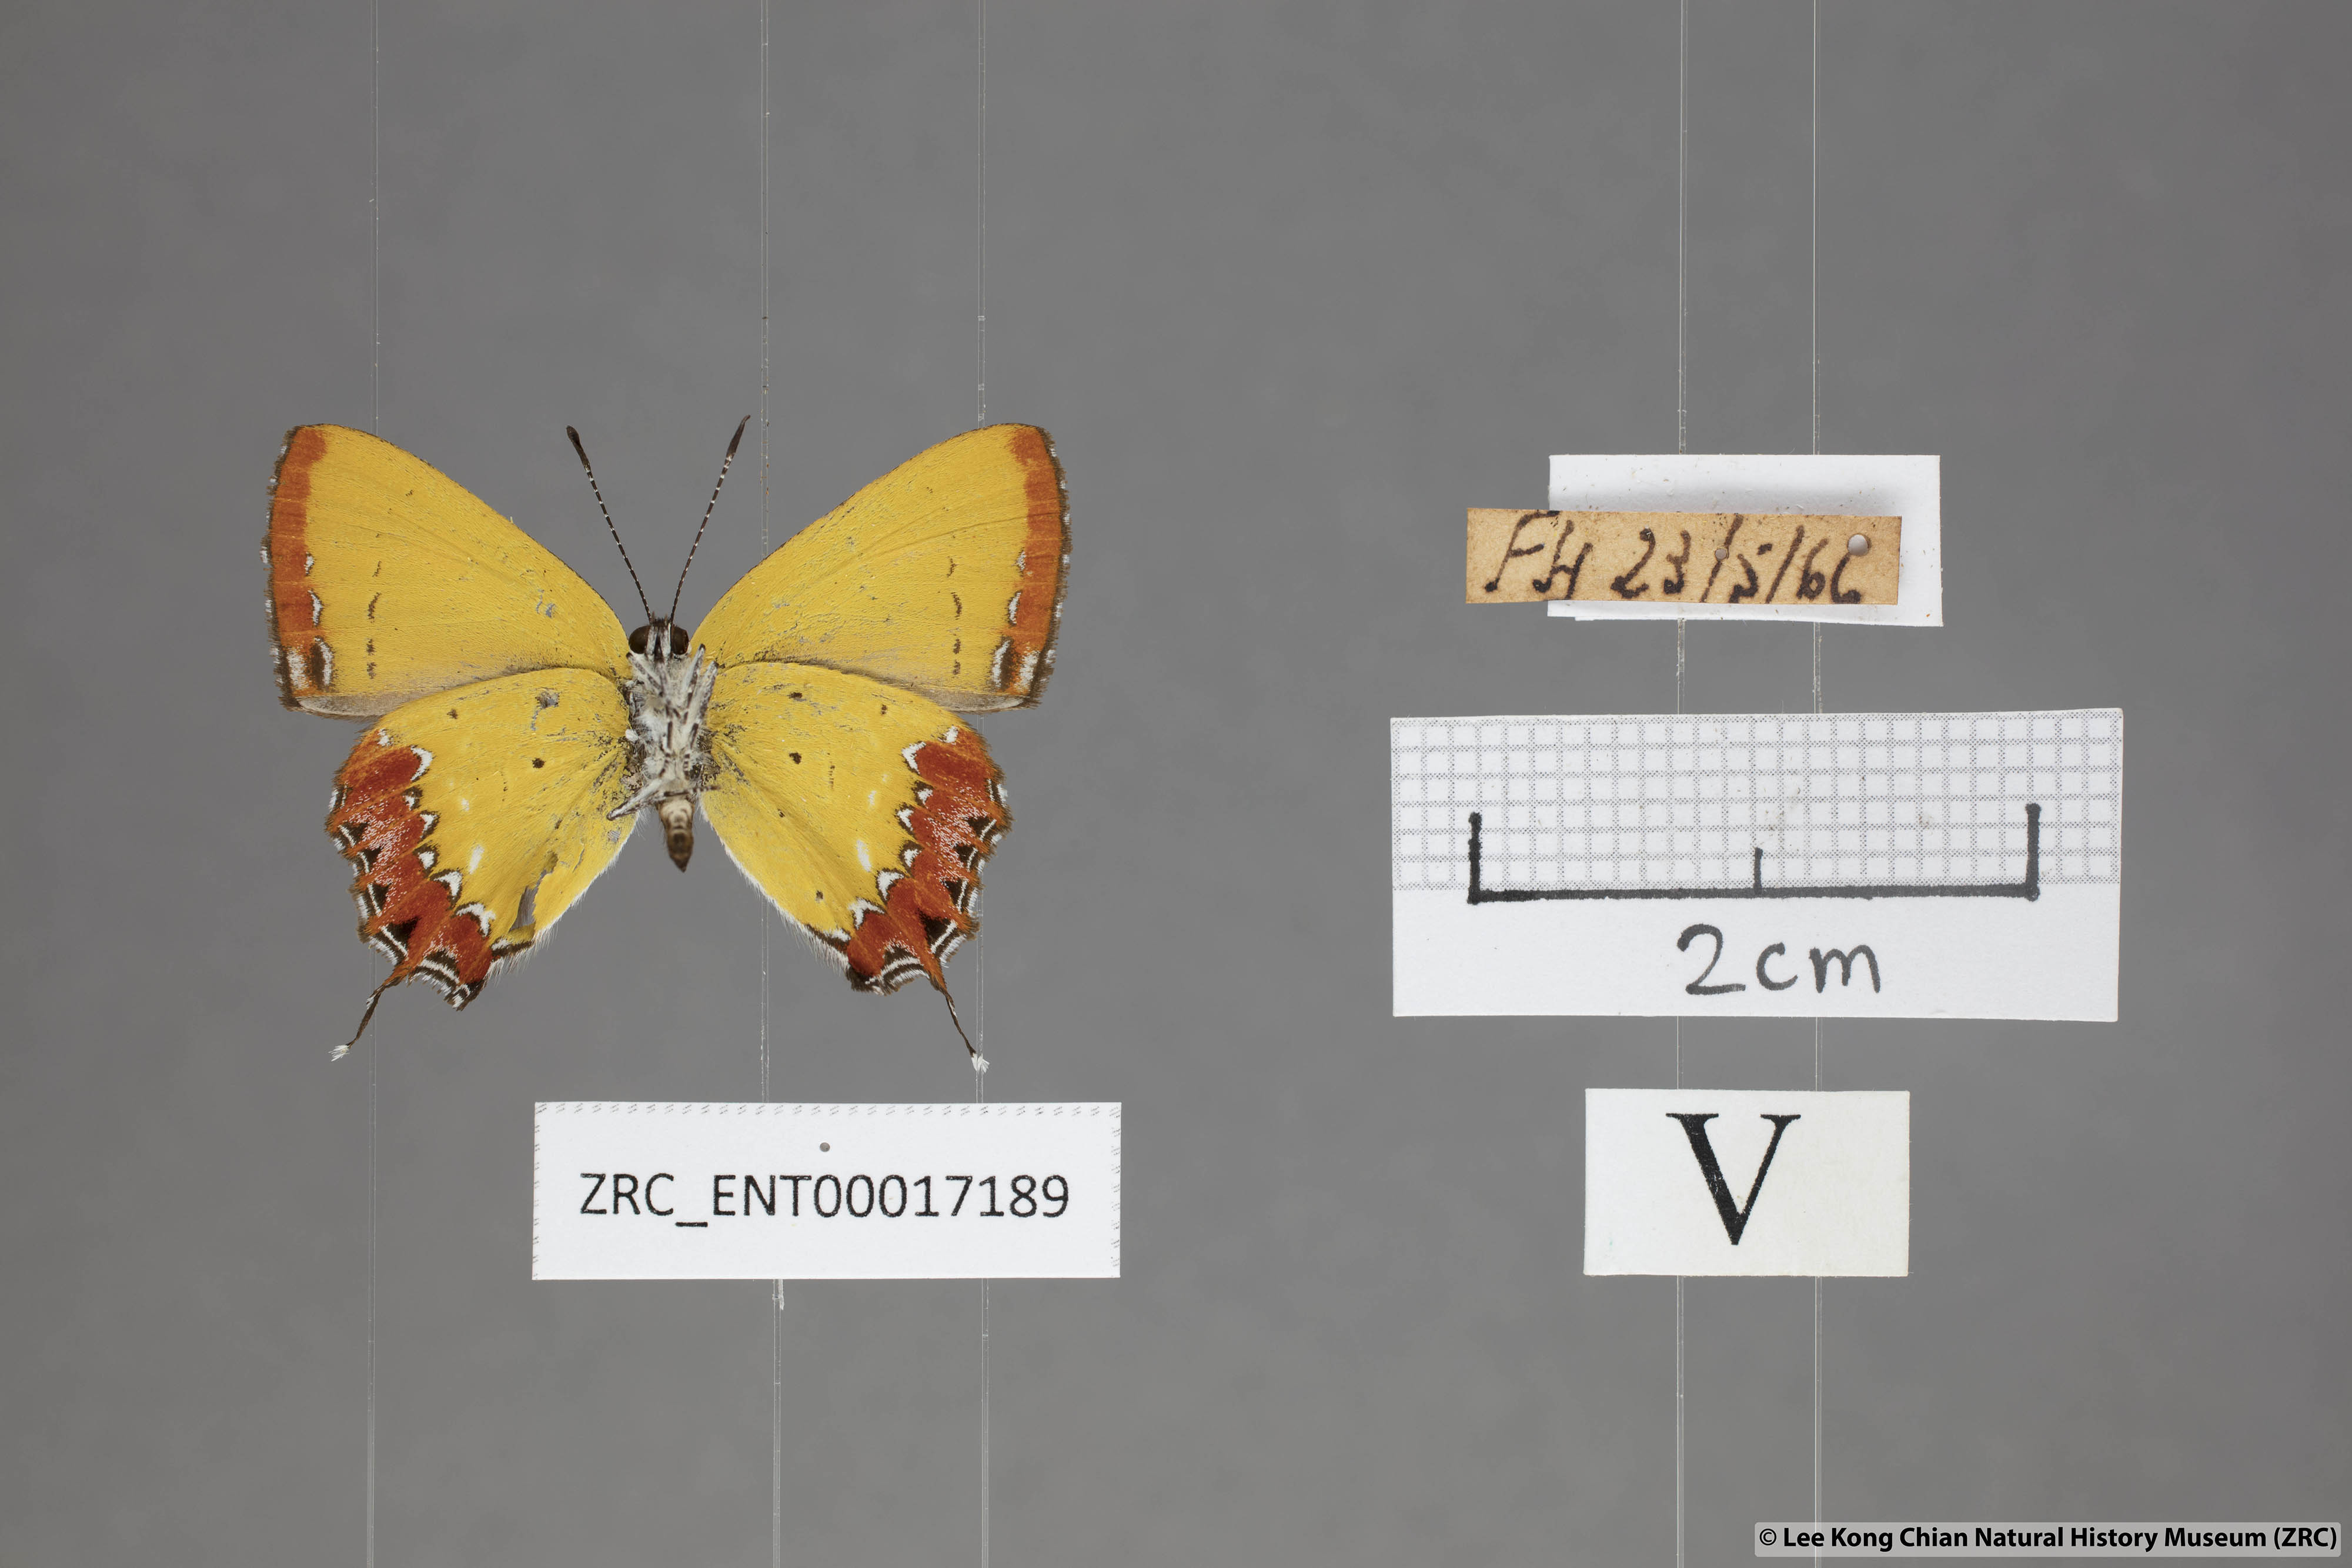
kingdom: Animalia
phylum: Arthropoda
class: Insecta
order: Lepidoptera
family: Lycaenidae
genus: Heliophorus
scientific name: Heliophorus epicles
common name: Purple sapphire
